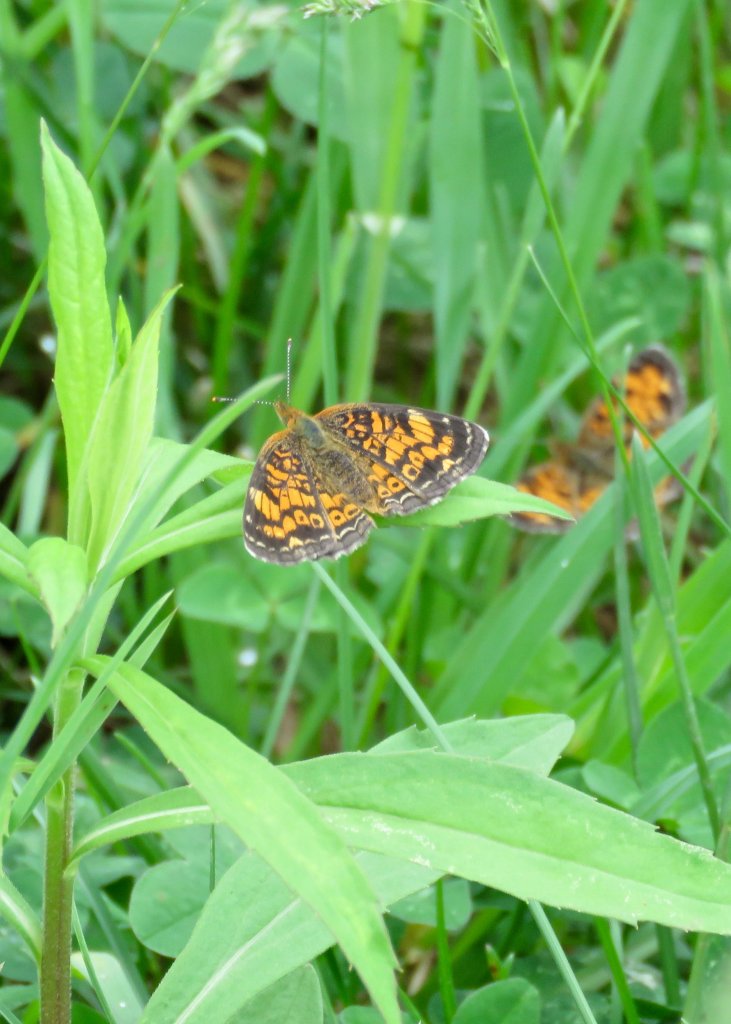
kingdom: Animalia
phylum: Arthropoda
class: Insecta
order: Lepidoptera
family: Nymphalidae
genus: Phyciodes
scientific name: Phyciodes tharos
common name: Pearl Crescent
